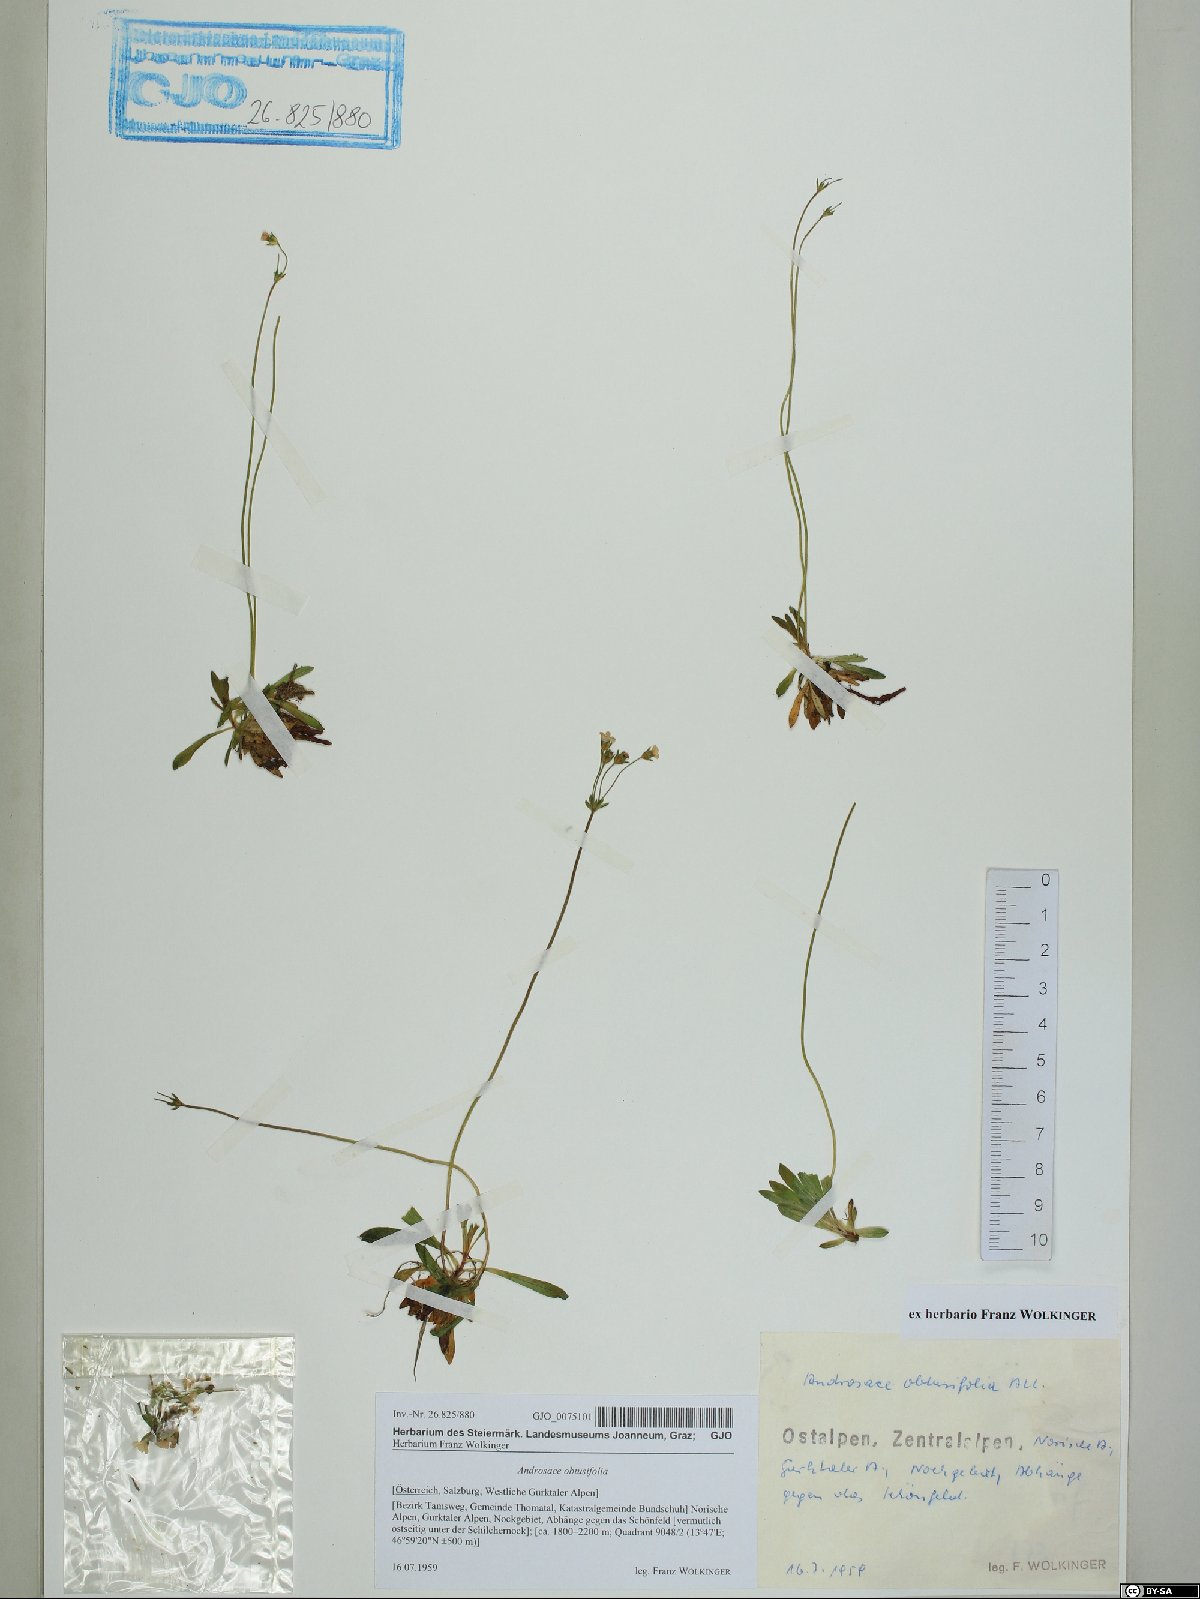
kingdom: Plantae
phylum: Tracheophyta
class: Magnoliopsida
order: Ericales
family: Primulaceae
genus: Androsace
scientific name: Androsace obtusifolia
